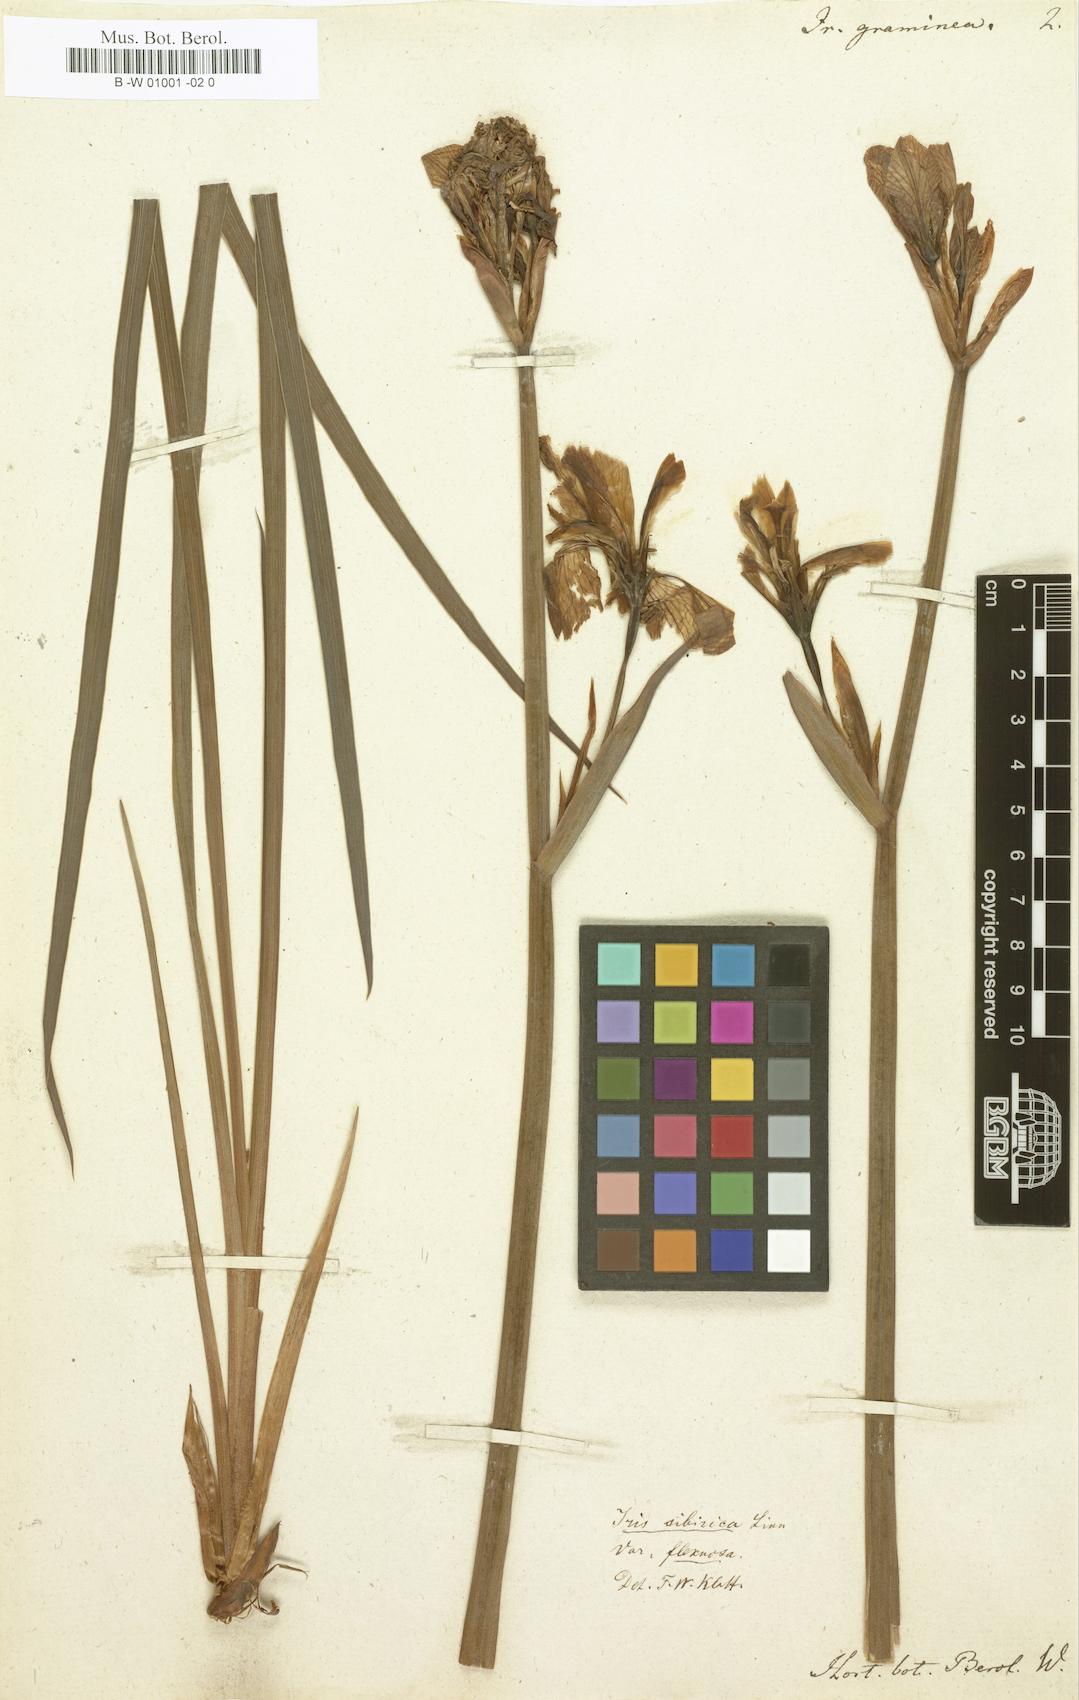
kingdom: Plantae
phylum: Tracheophyta
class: Liliopsida
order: Asparagales
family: Iridaceae
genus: Iris
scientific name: Iris graminea
